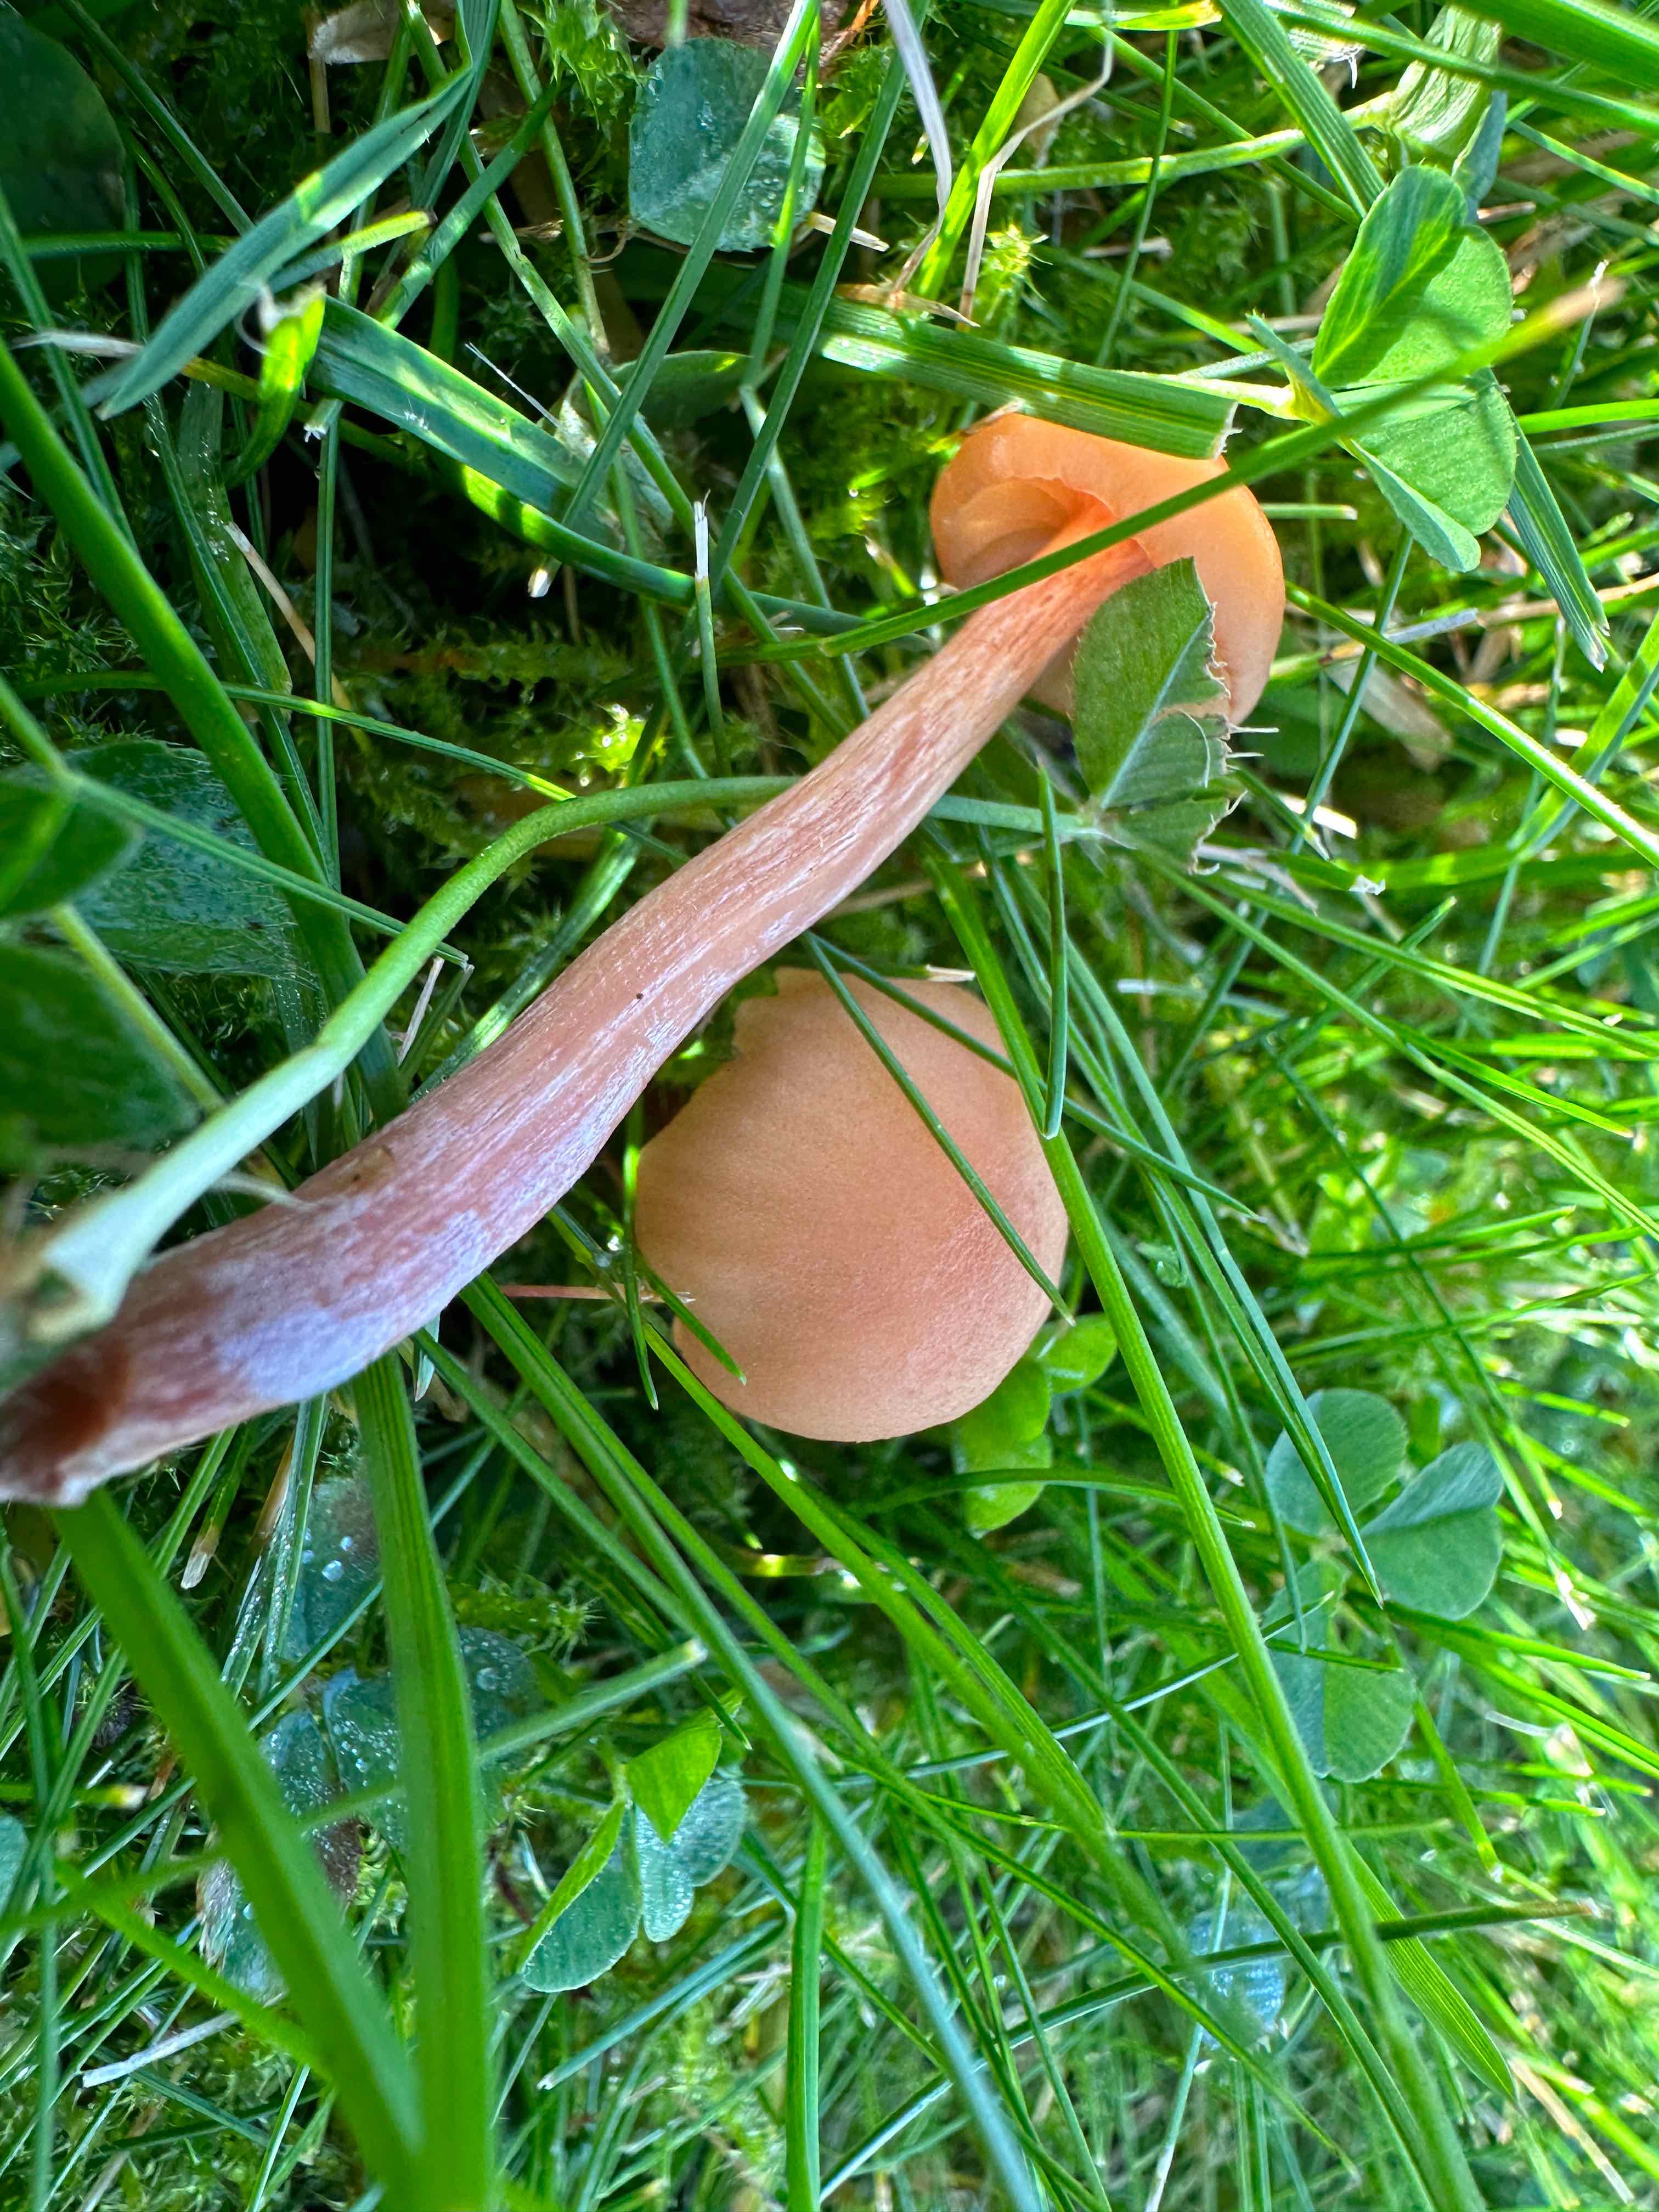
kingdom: Fungi
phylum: Basidiomycota
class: Agaricomycetes
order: Agaricales
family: Hydnangiaceae
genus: Laccaria
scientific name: Laccaria laccata
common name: rød ametysthat
